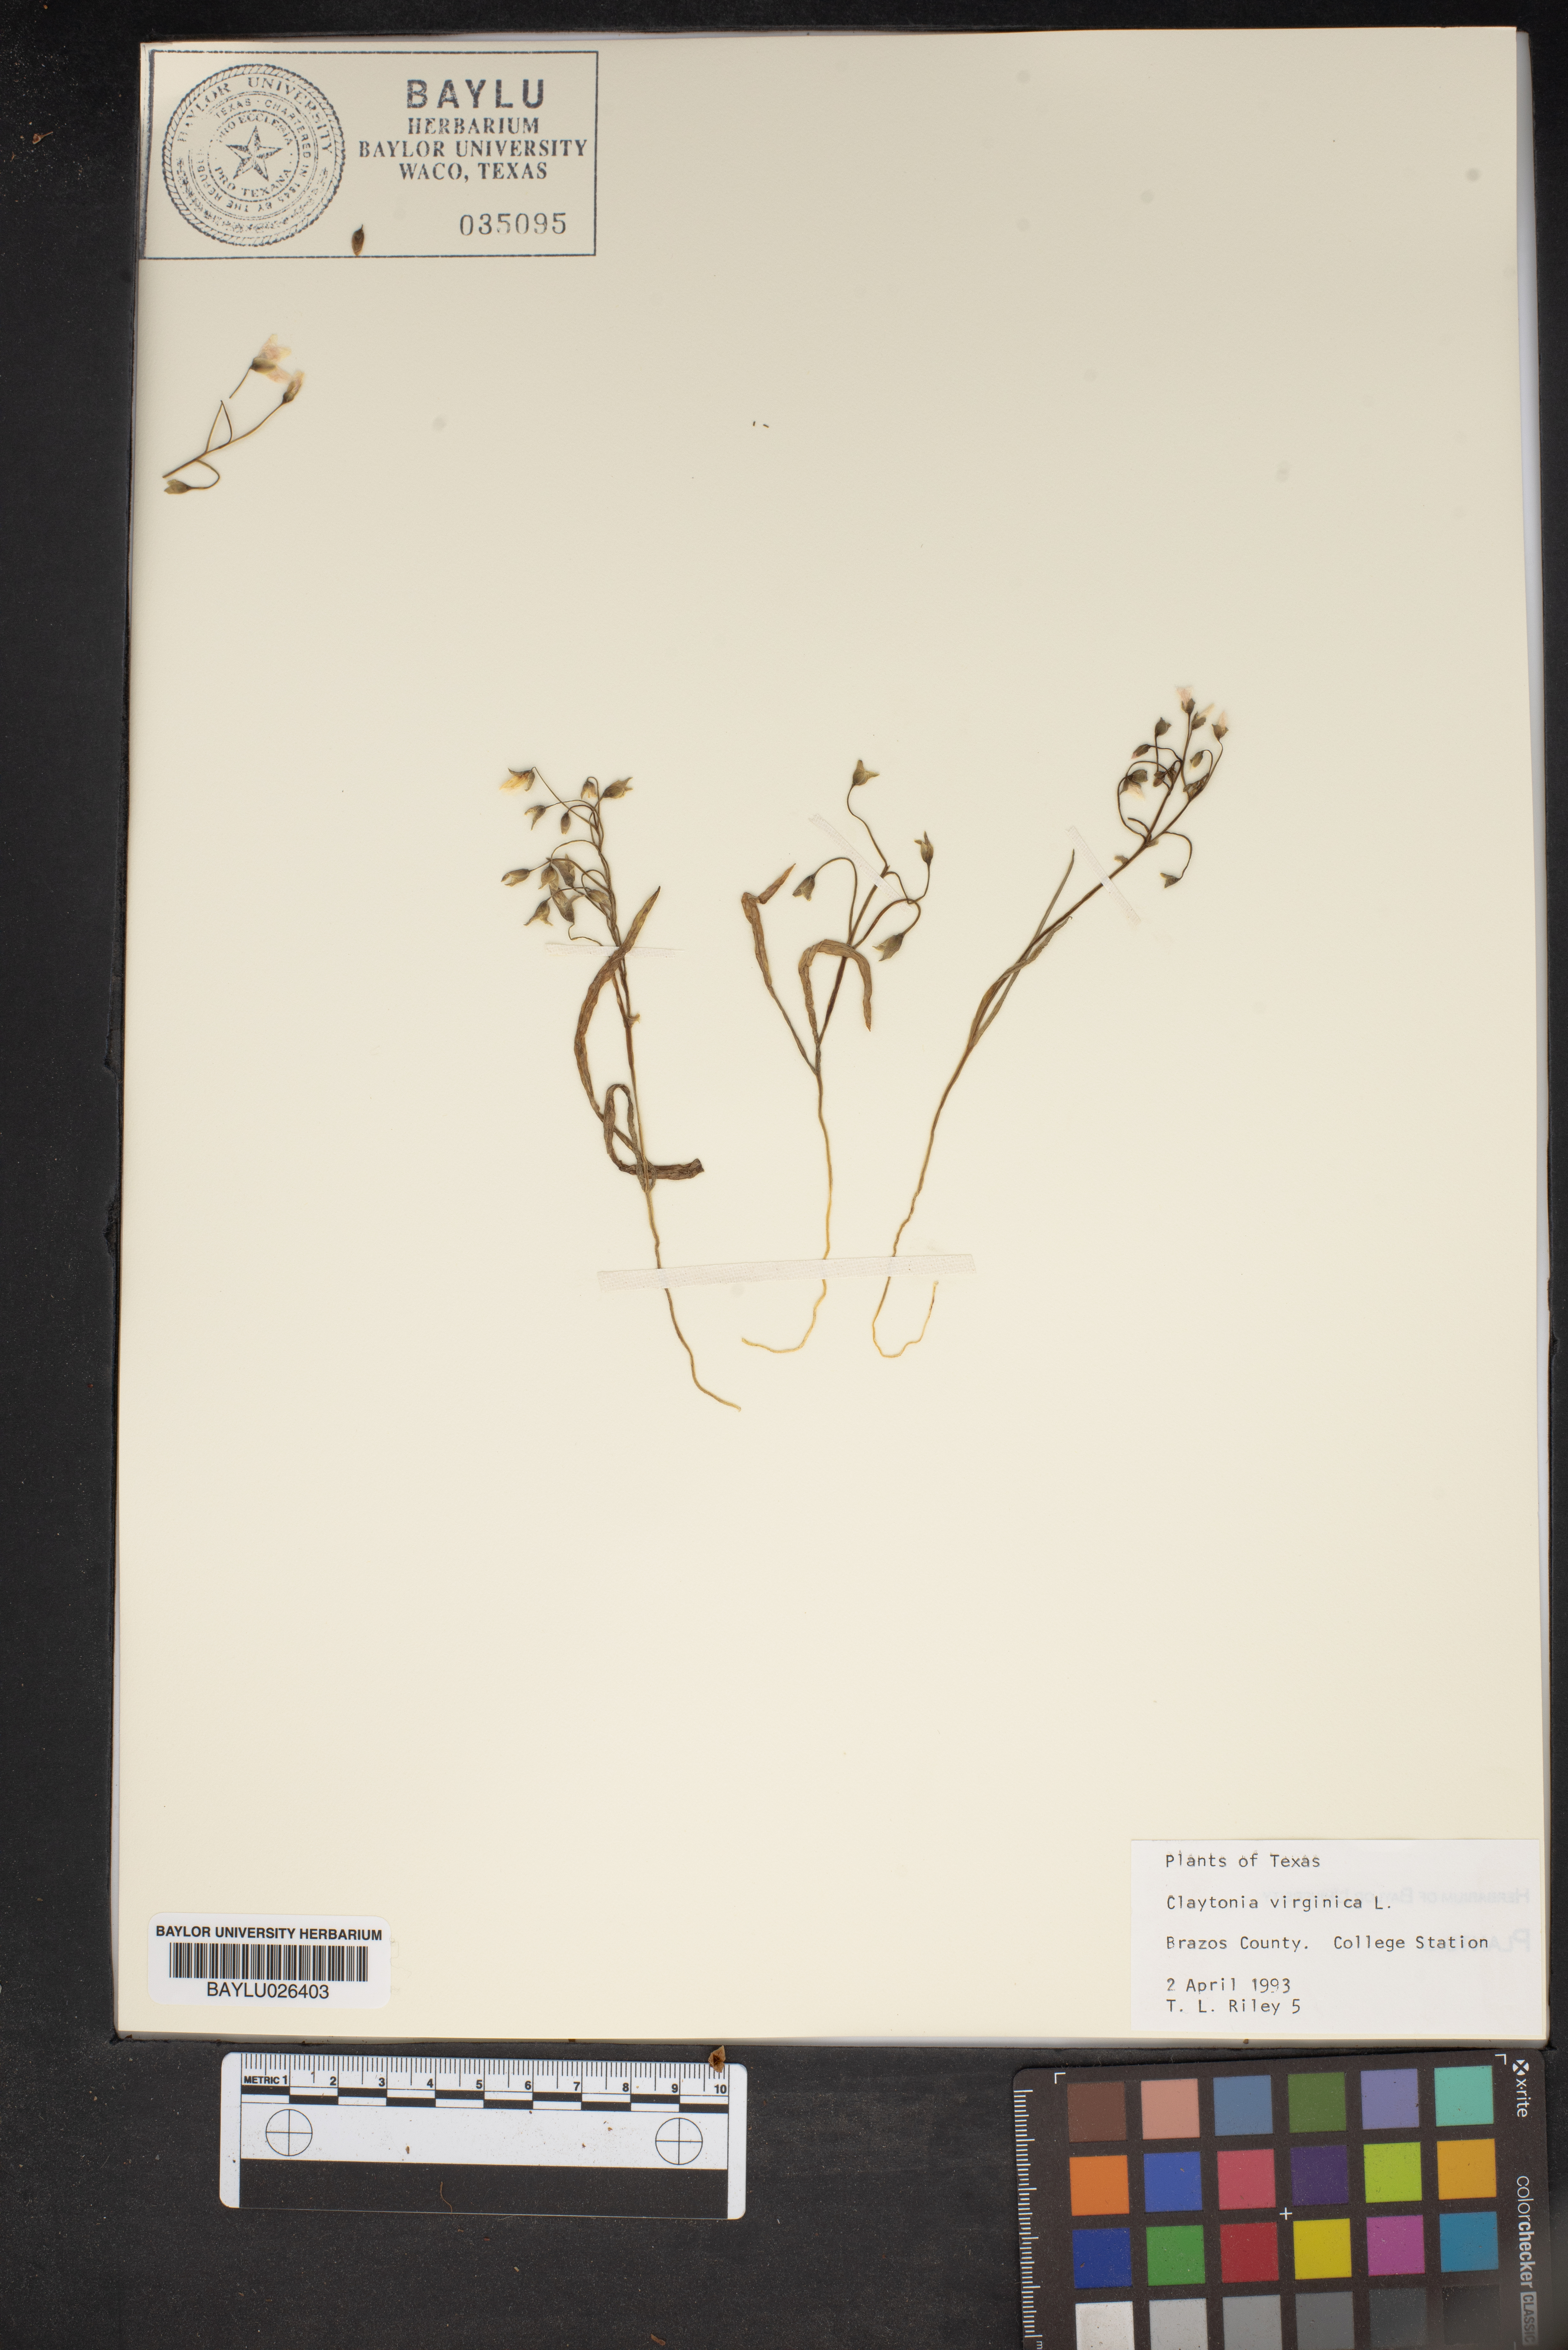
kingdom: Plantae
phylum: Tracheophyta
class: Magnoliopsida
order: Caryophyllales
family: Montiaceae
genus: Claytonia
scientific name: Claytonia virginica
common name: Virginia springbeauty
